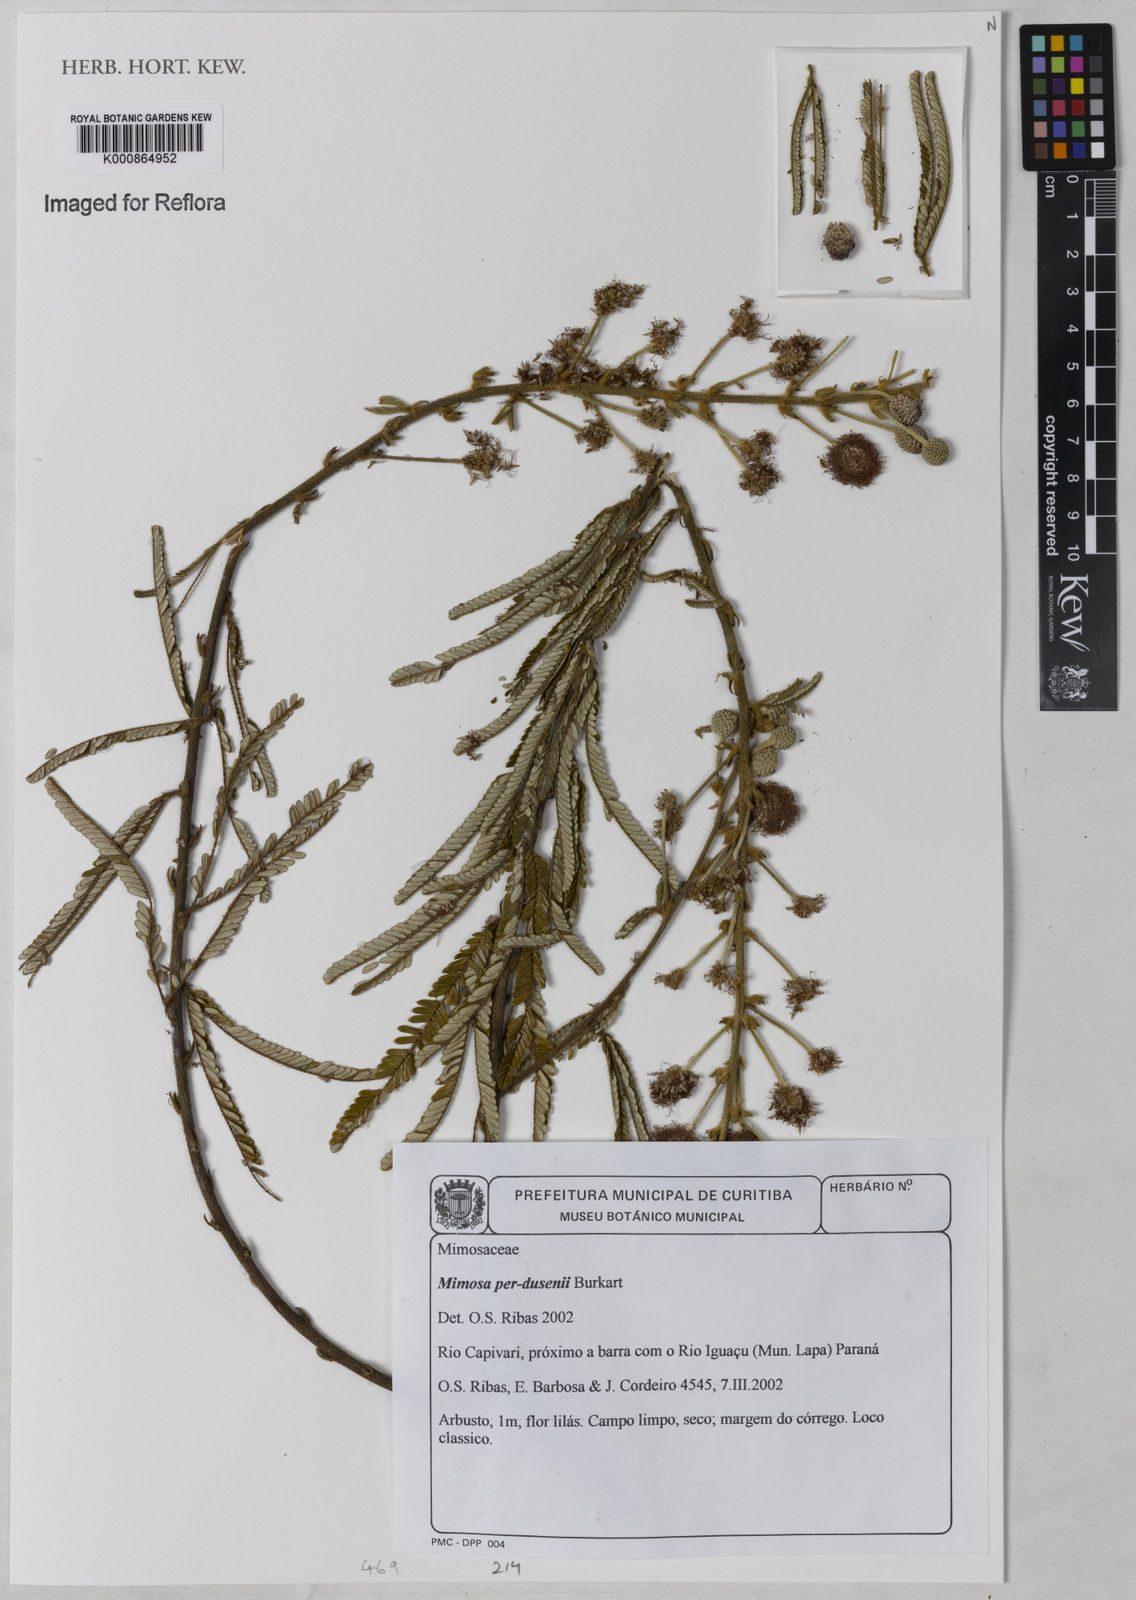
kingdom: Plantae
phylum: Tracheophyta
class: Magnoliopsida
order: Fabales
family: Fabaceae
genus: Mimosa
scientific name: Mimosa per-dusenii
